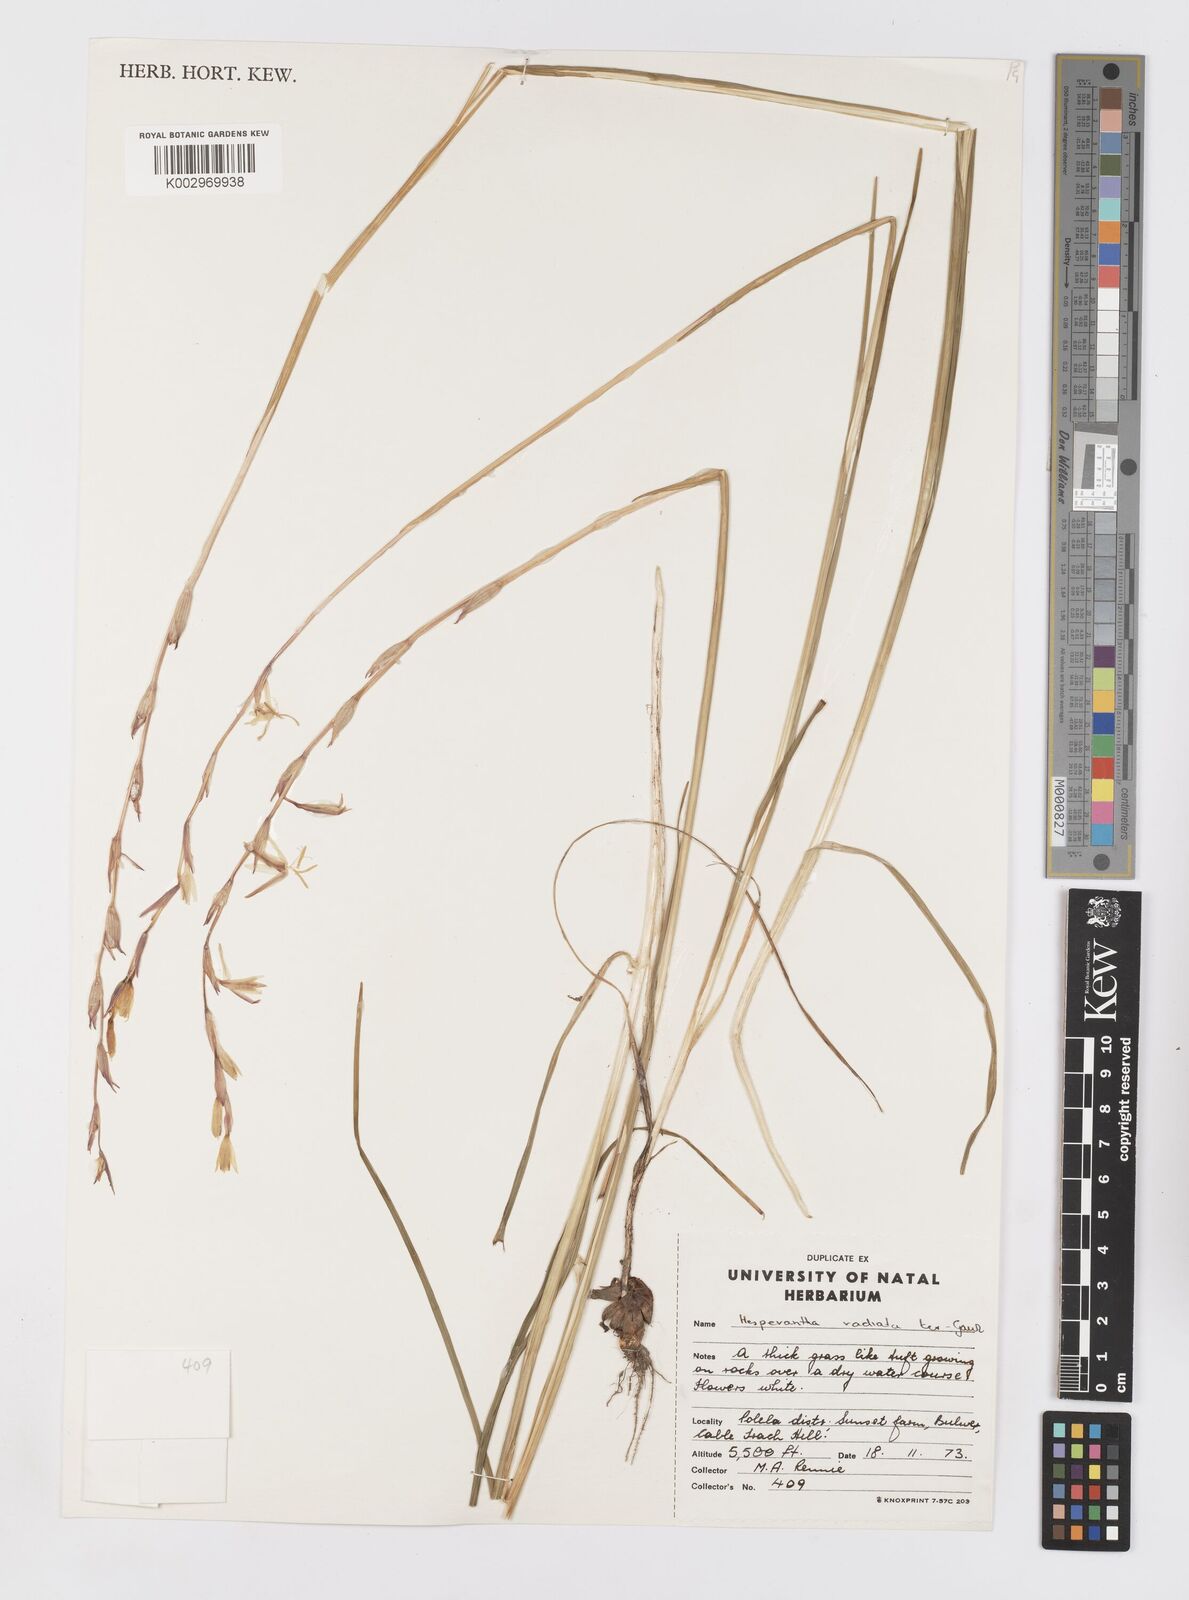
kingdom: Plantae
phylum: Tracheophyta
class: Liliopsida
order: Asparagales
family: Iridaceae
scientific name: Iridaceae
